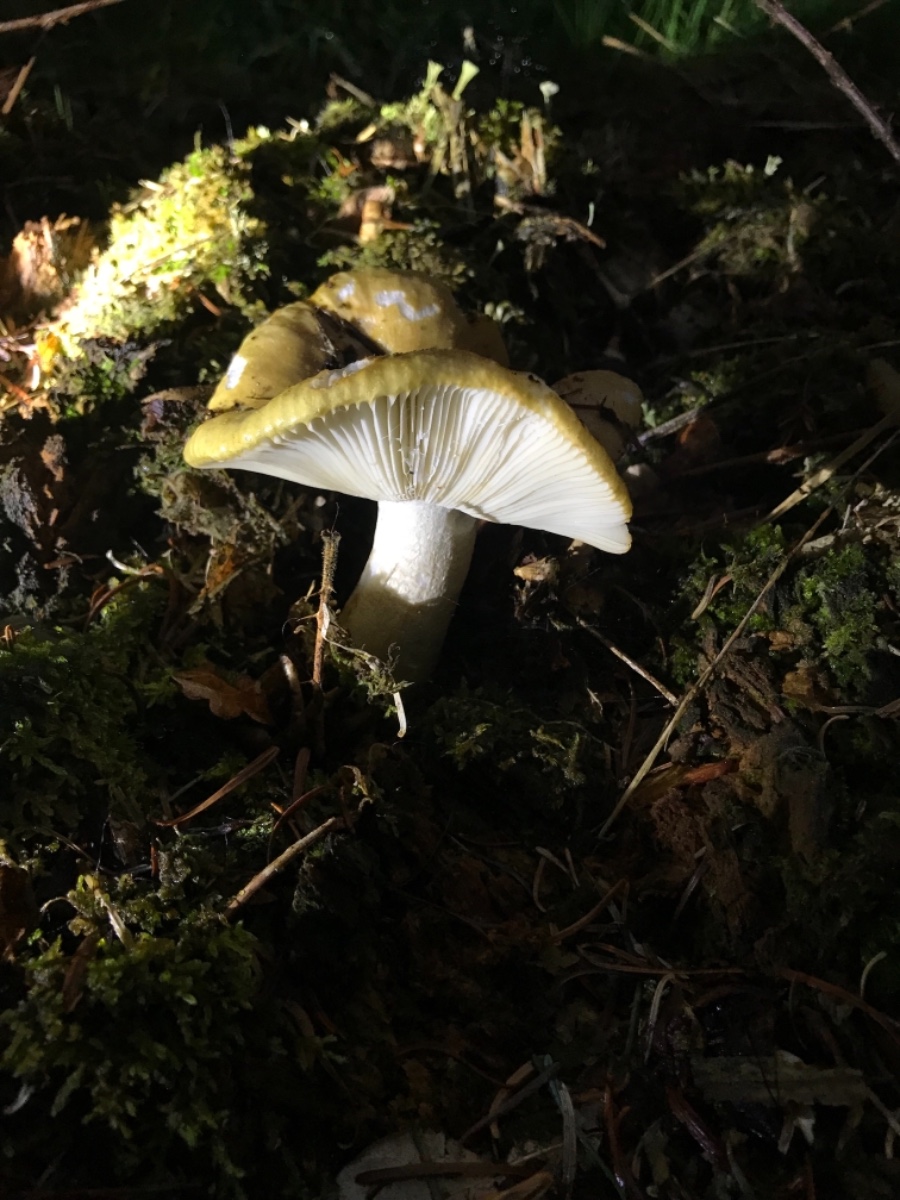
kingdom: Fungi
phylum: Basidiomycota
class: Agaricomycetes
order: Russulales
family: Russulaceae
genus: Russula
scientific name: Russula ochroleuca
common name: okkergul skørhat
